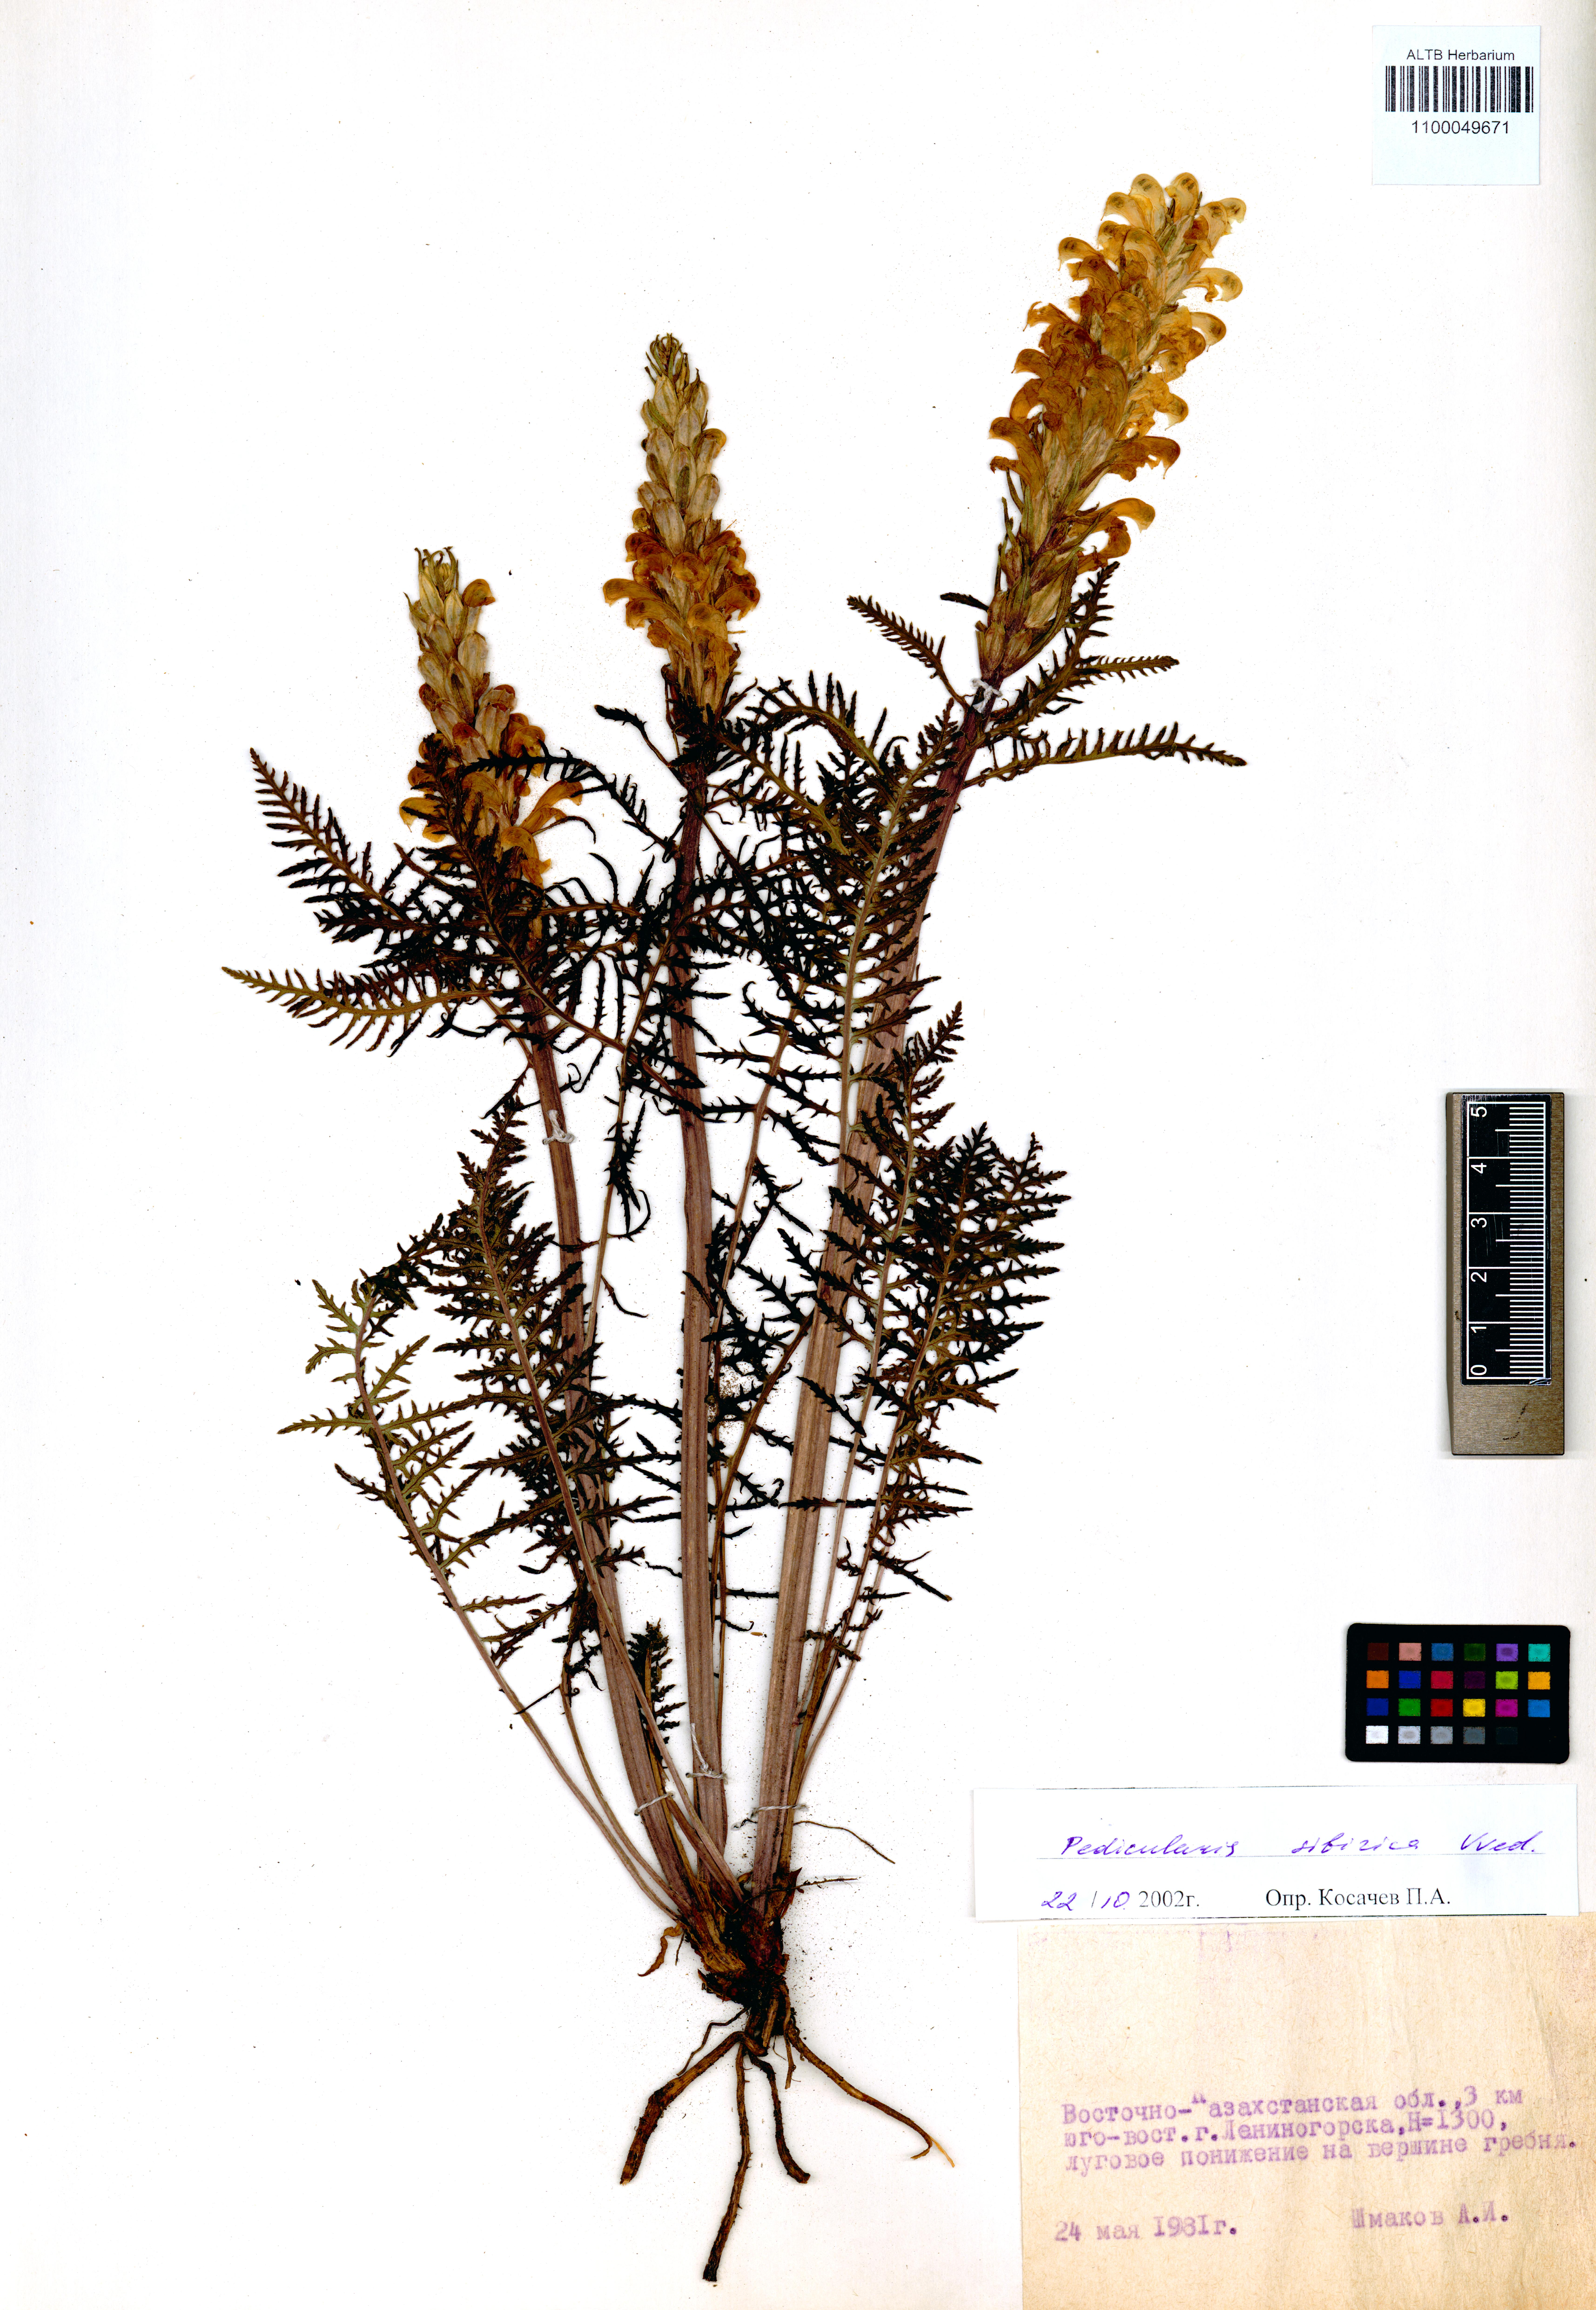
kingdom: Plantae
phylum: Tracheophyta
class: Magnoliopsida
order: Lamiales
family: Orobanchaceae
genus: Pedicularis
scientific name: Pedicularis sibirica
